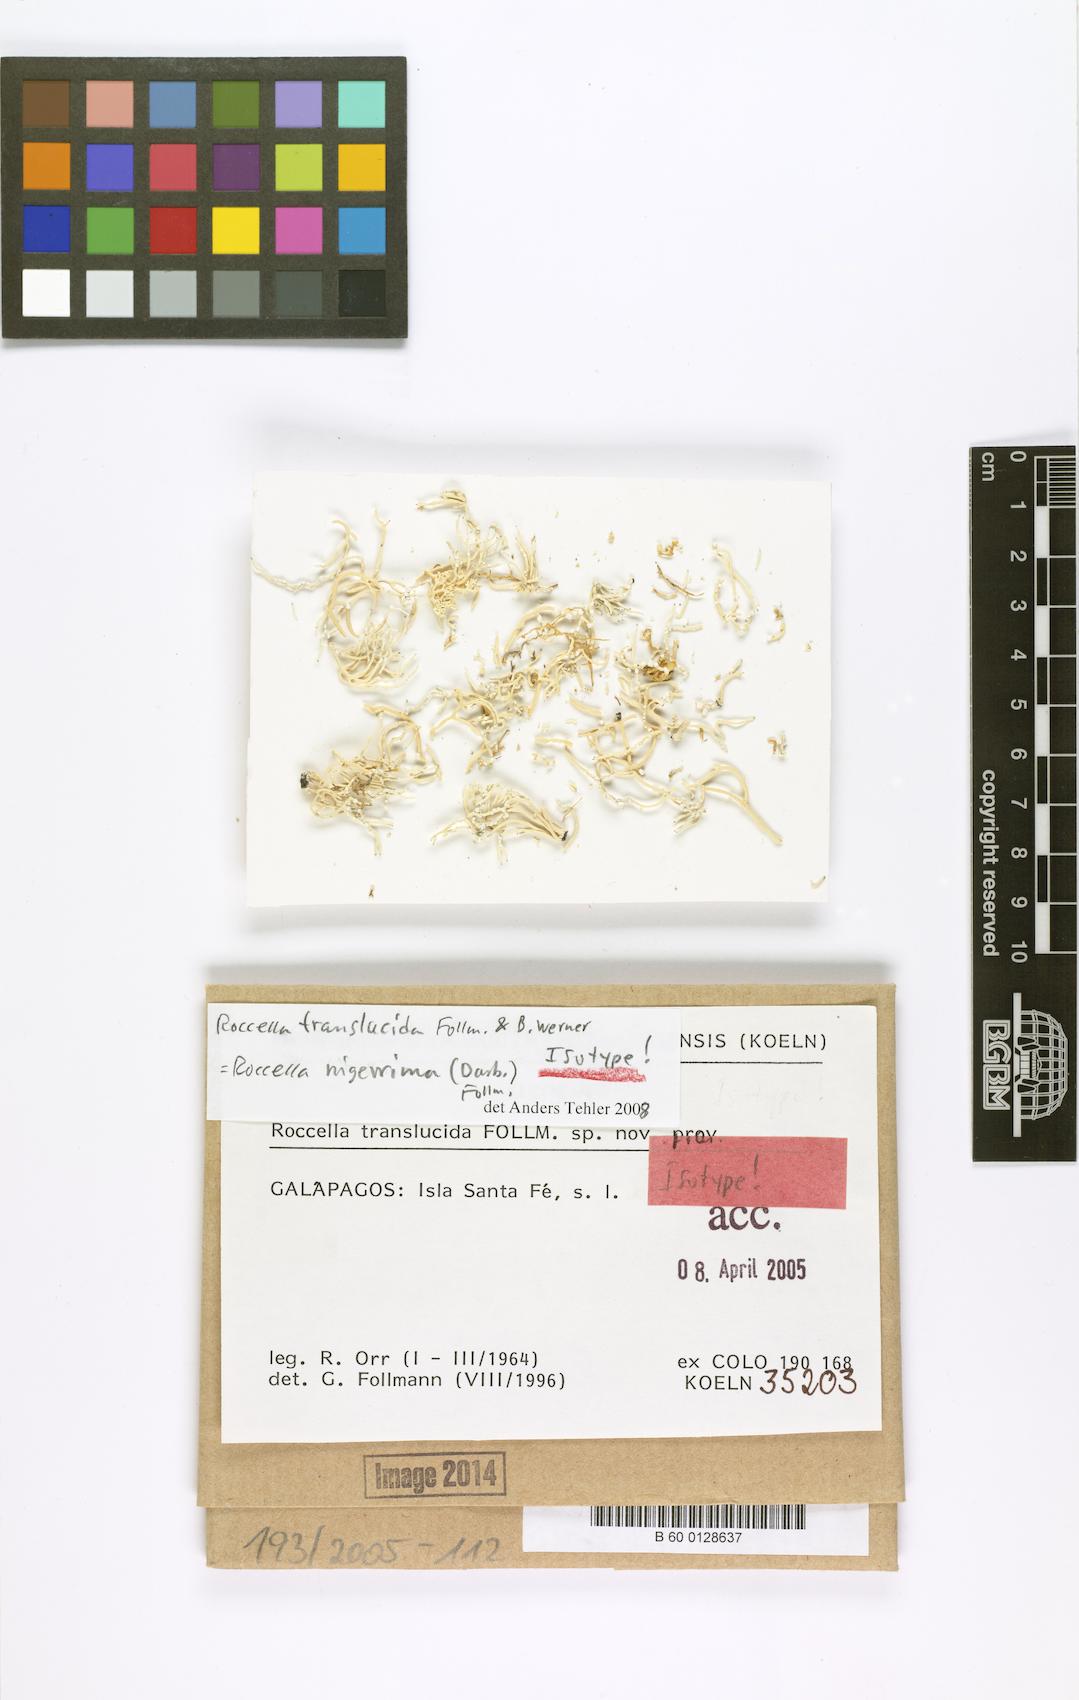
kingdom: Fungi
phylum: Ascomycota
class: Arthoniomycetes
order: Arthoniales
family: Roccellaceae
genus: Roccella
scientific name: Roccella translucida
